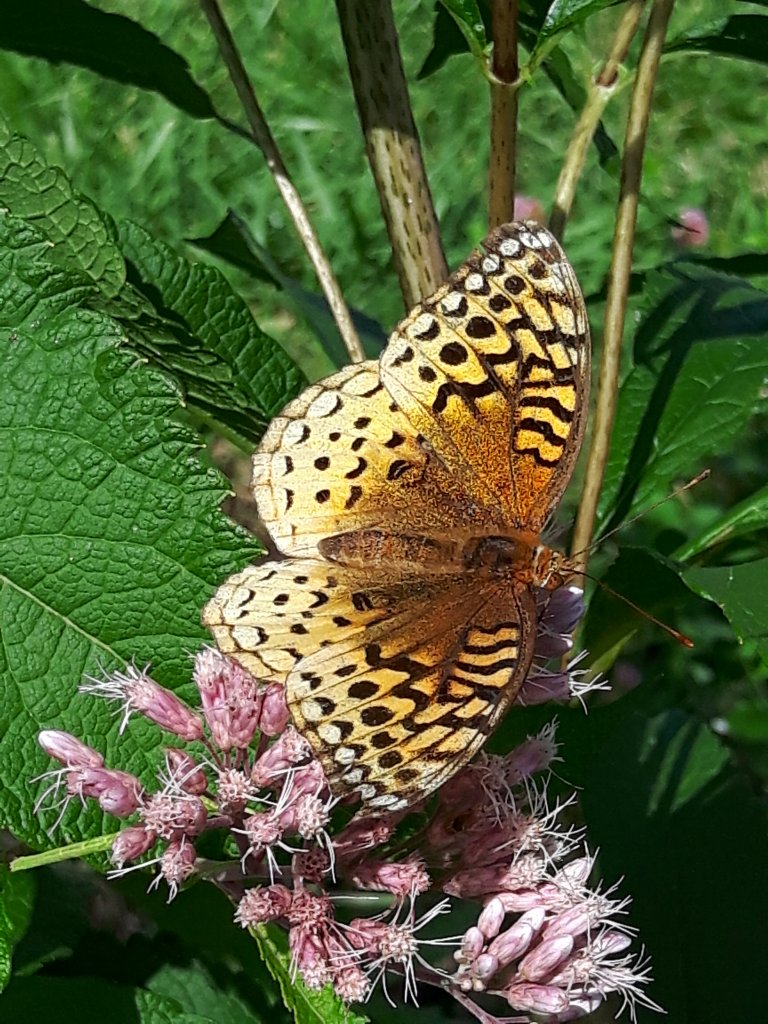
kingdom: Animalia
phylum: Arthropoda
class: Insecta
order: Lepidoptera
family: Nymphalidae
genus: Speyeria
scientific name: Speyeria cybele
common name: Great Spangled Fritillary
